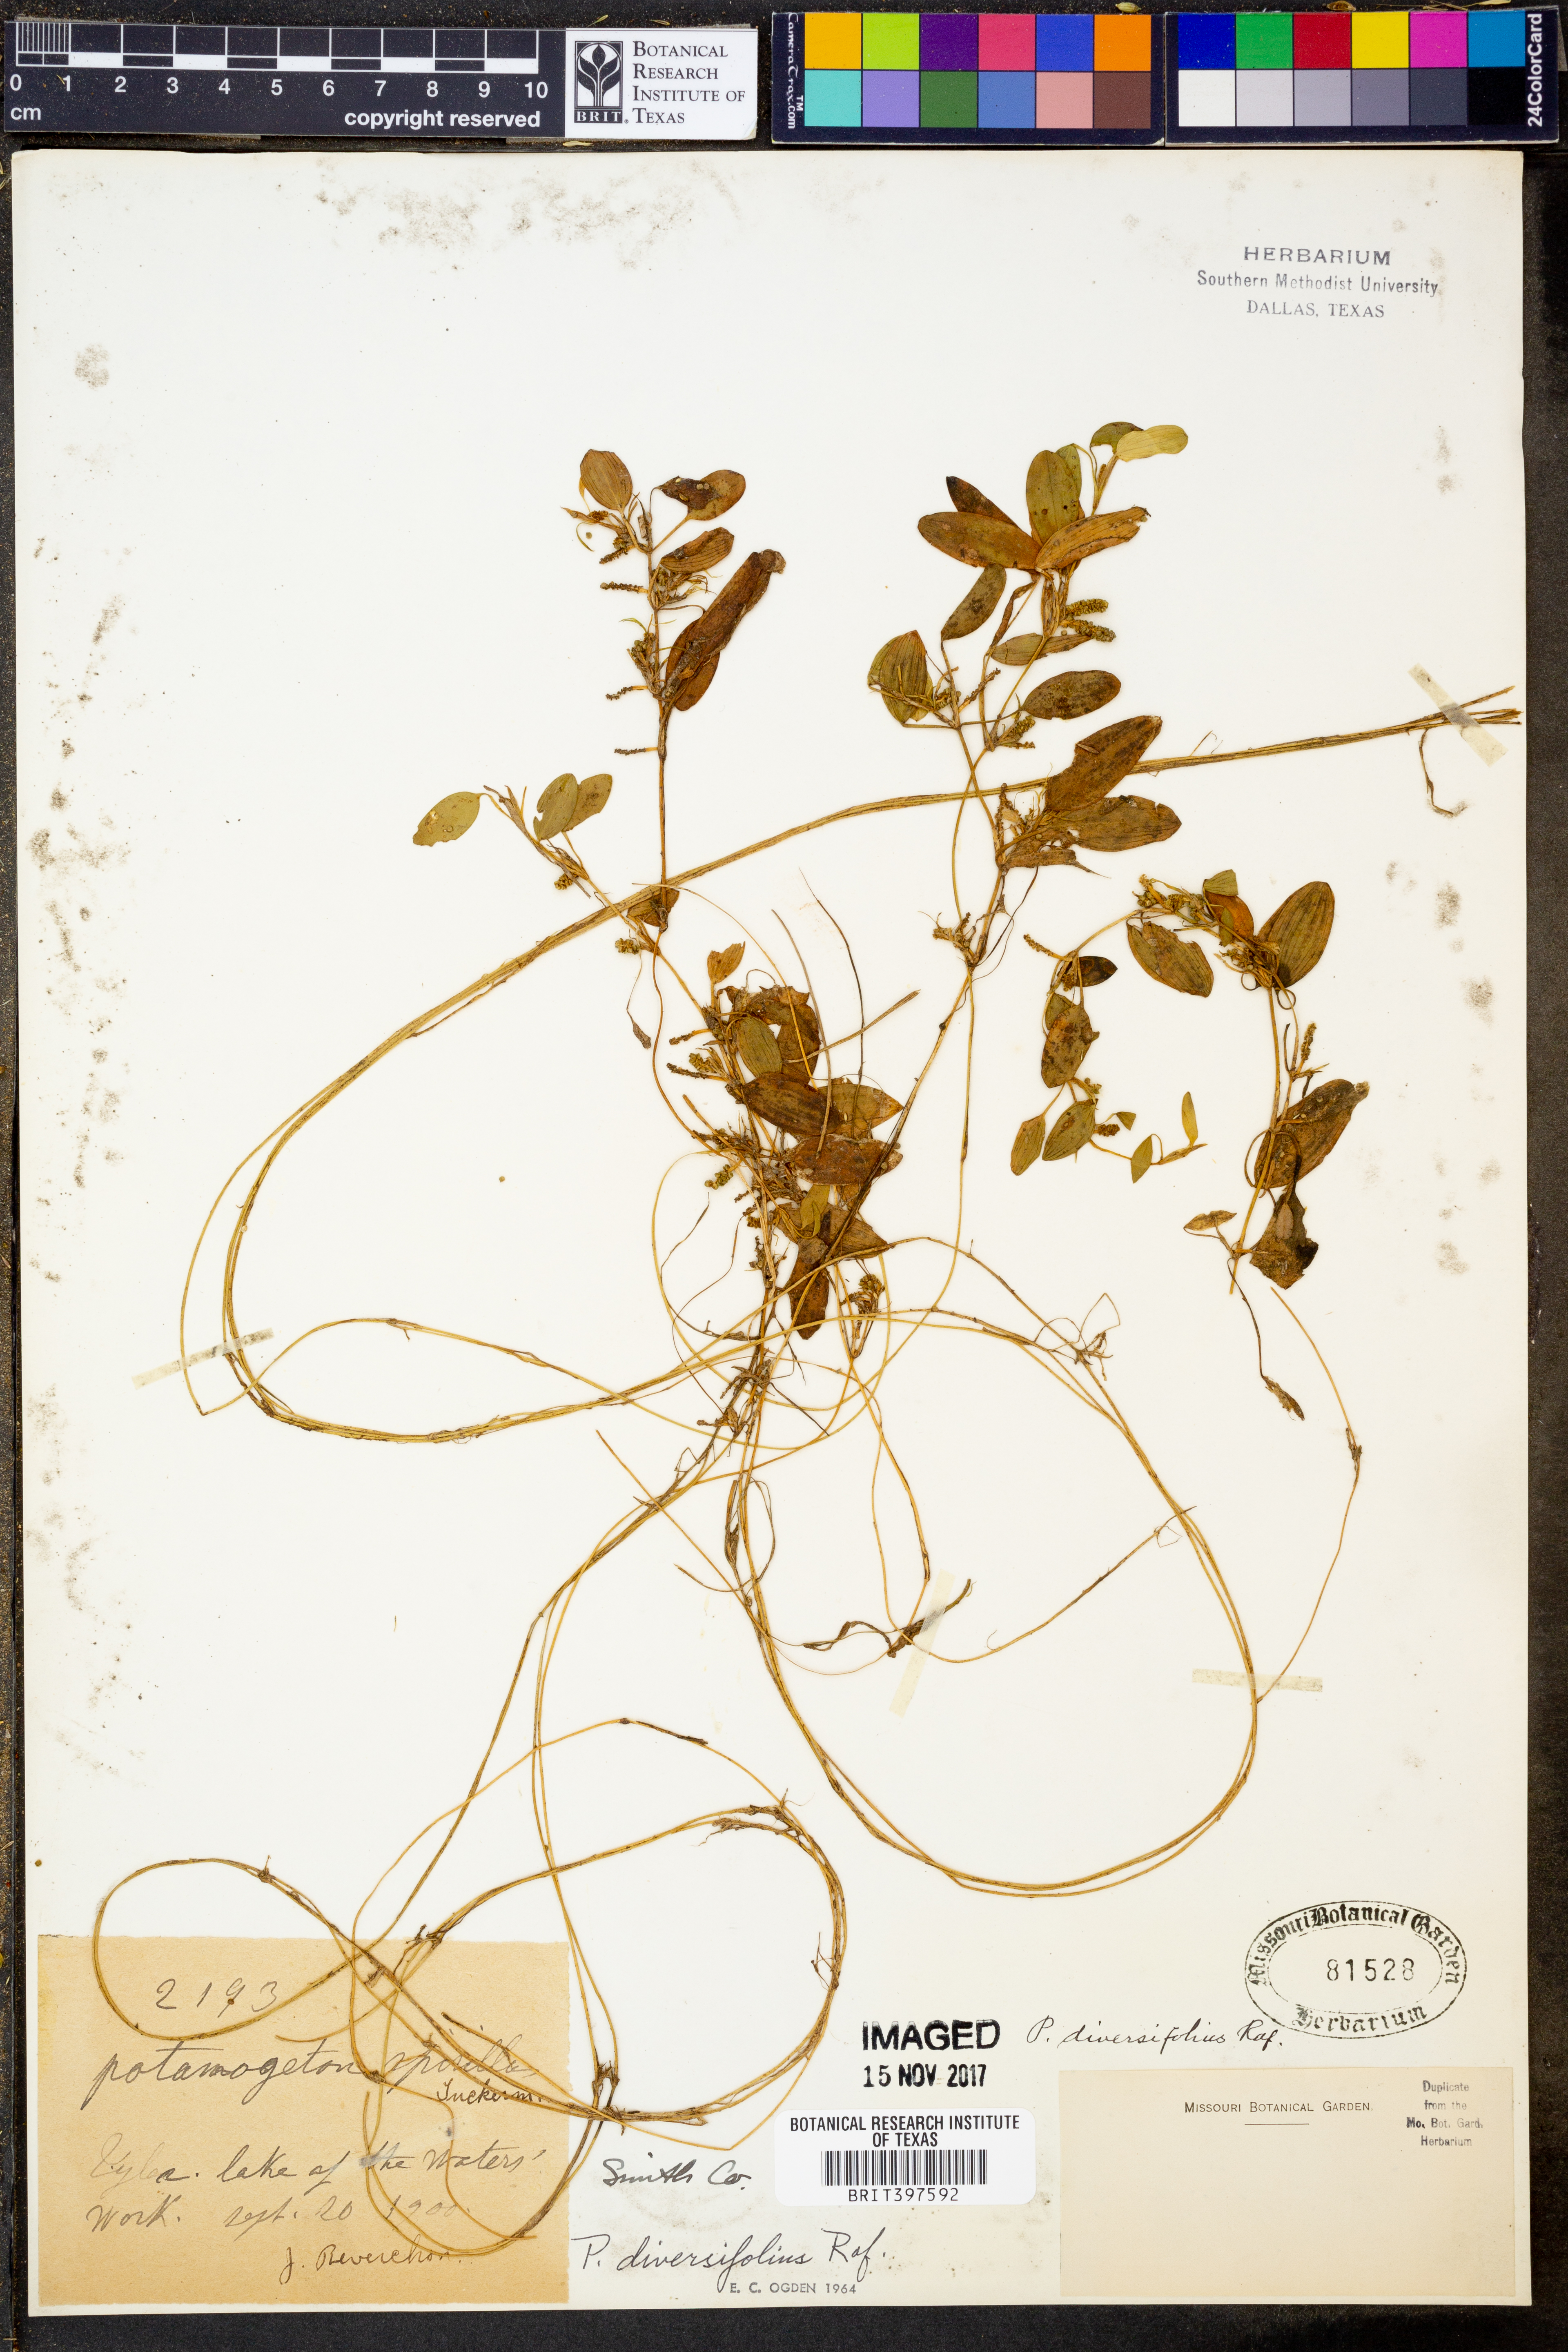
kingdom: Plantae
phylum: Tracheophyta
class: Liliopsida
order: Alismatales
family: Potamogetonaceae
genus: Potamogeton
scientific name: Potamogeton diversifolius
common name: Water-thread pondweed
